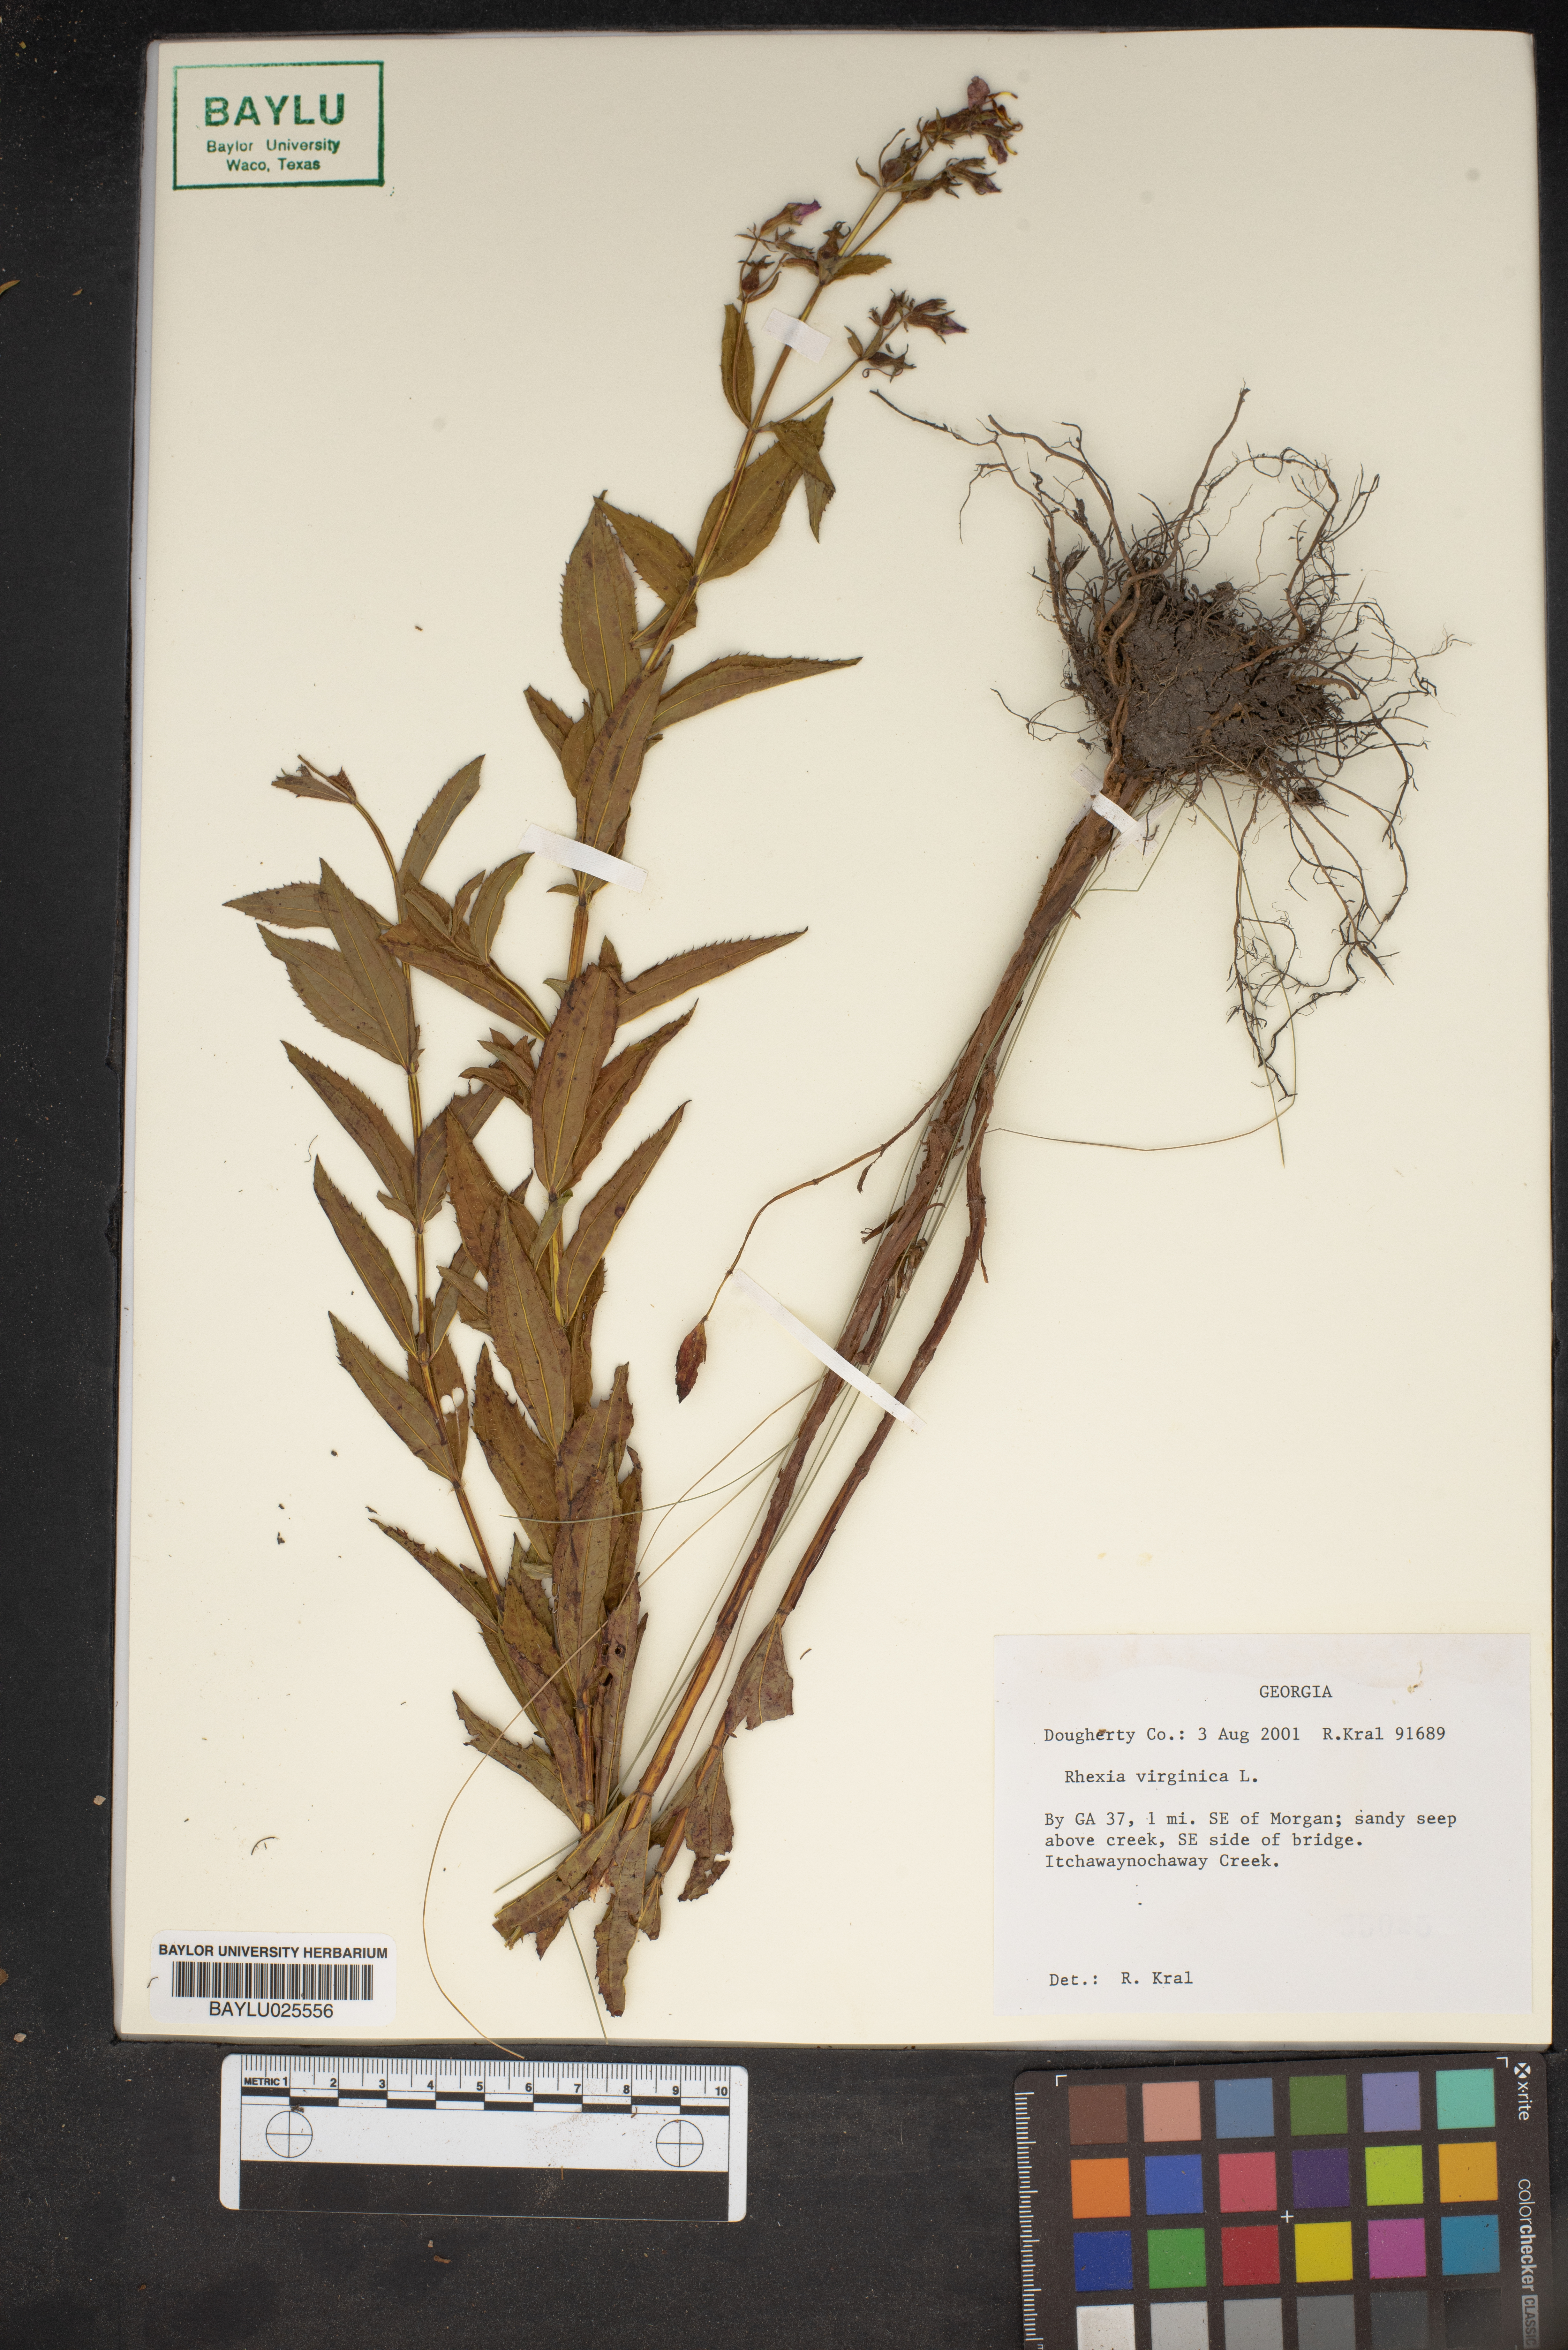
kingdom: Plantae
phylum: Tracheophyta
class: Magnoliopsida
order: Myrtales
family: Melastomataceae
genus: Rhexia
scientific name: Rhexia virginica
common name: Common meadow beauty
